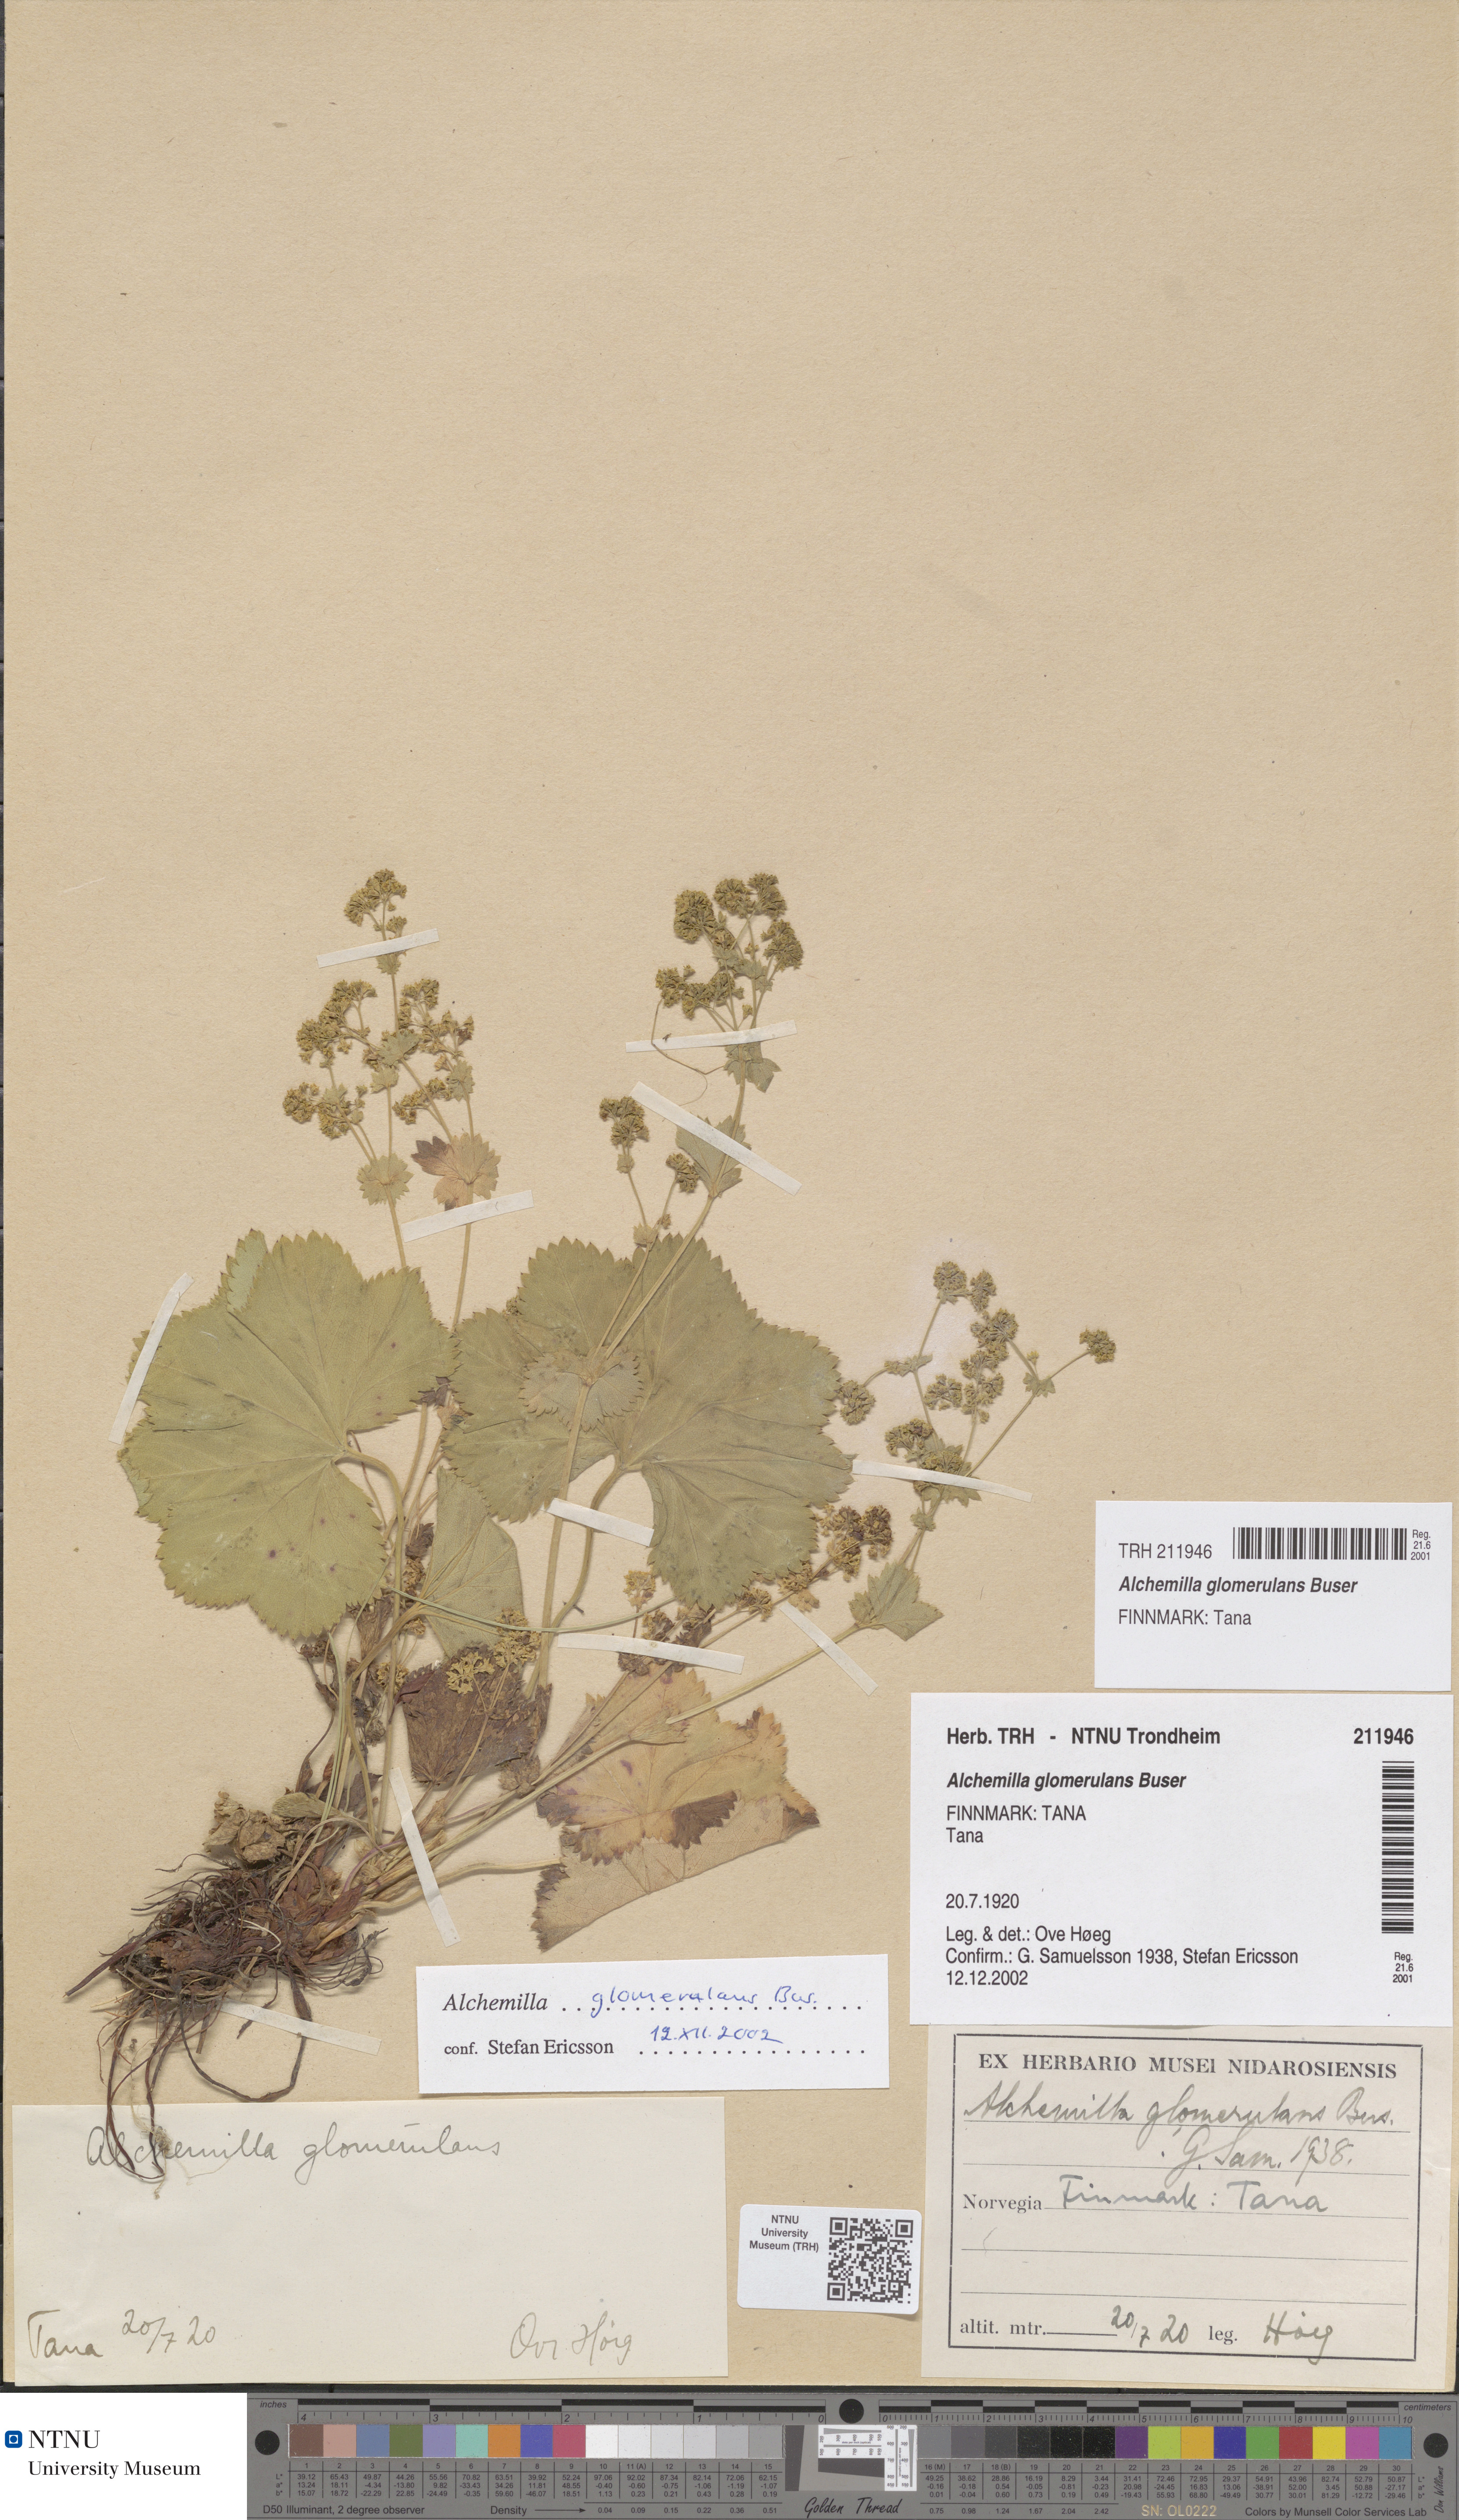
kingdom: Plantae
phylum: Tracheophyta
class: Magnoliopsida
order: Rosales
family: Rosaceae
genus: Alchemilla
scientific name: Alchemilla glomerulans
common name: Clustered lady's mantle
